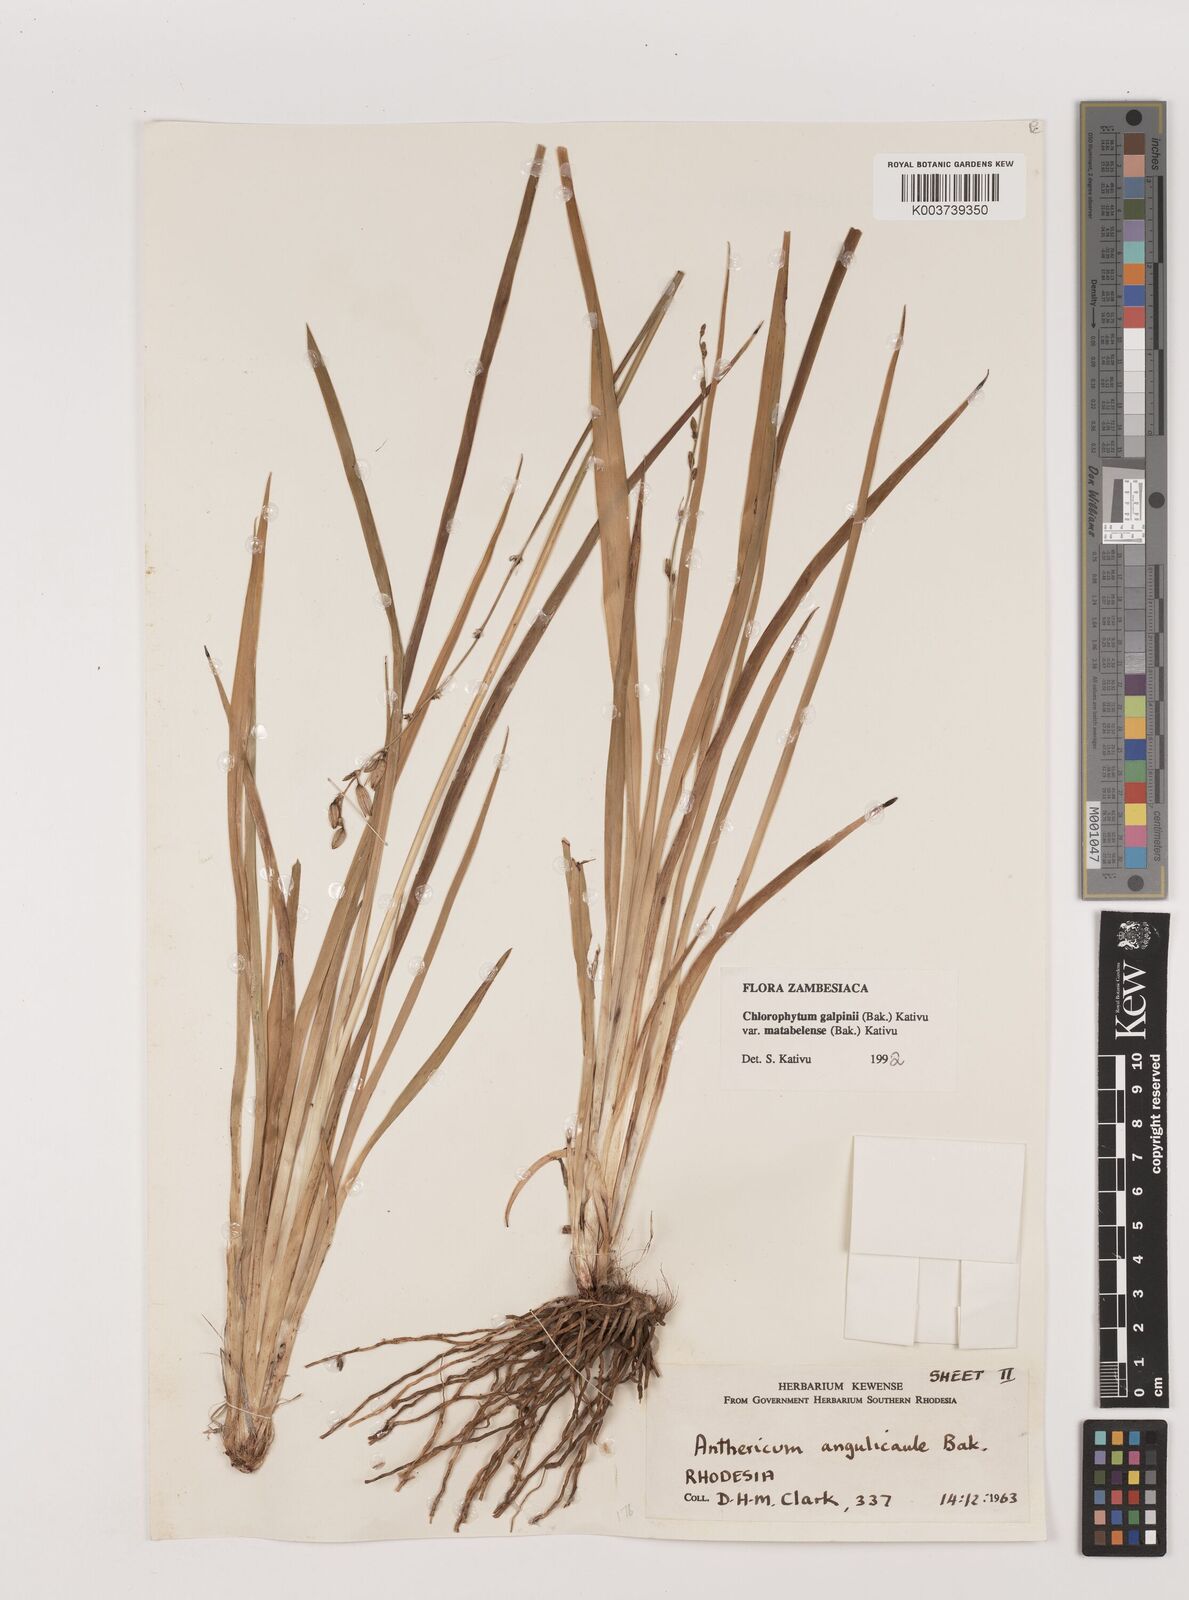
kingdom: Plantae
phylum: Tracheophyta
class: Liliopsida
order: Asparagales
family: Asparagaceae
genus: Chlorophytum
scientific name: Chlorophytum galpinii
